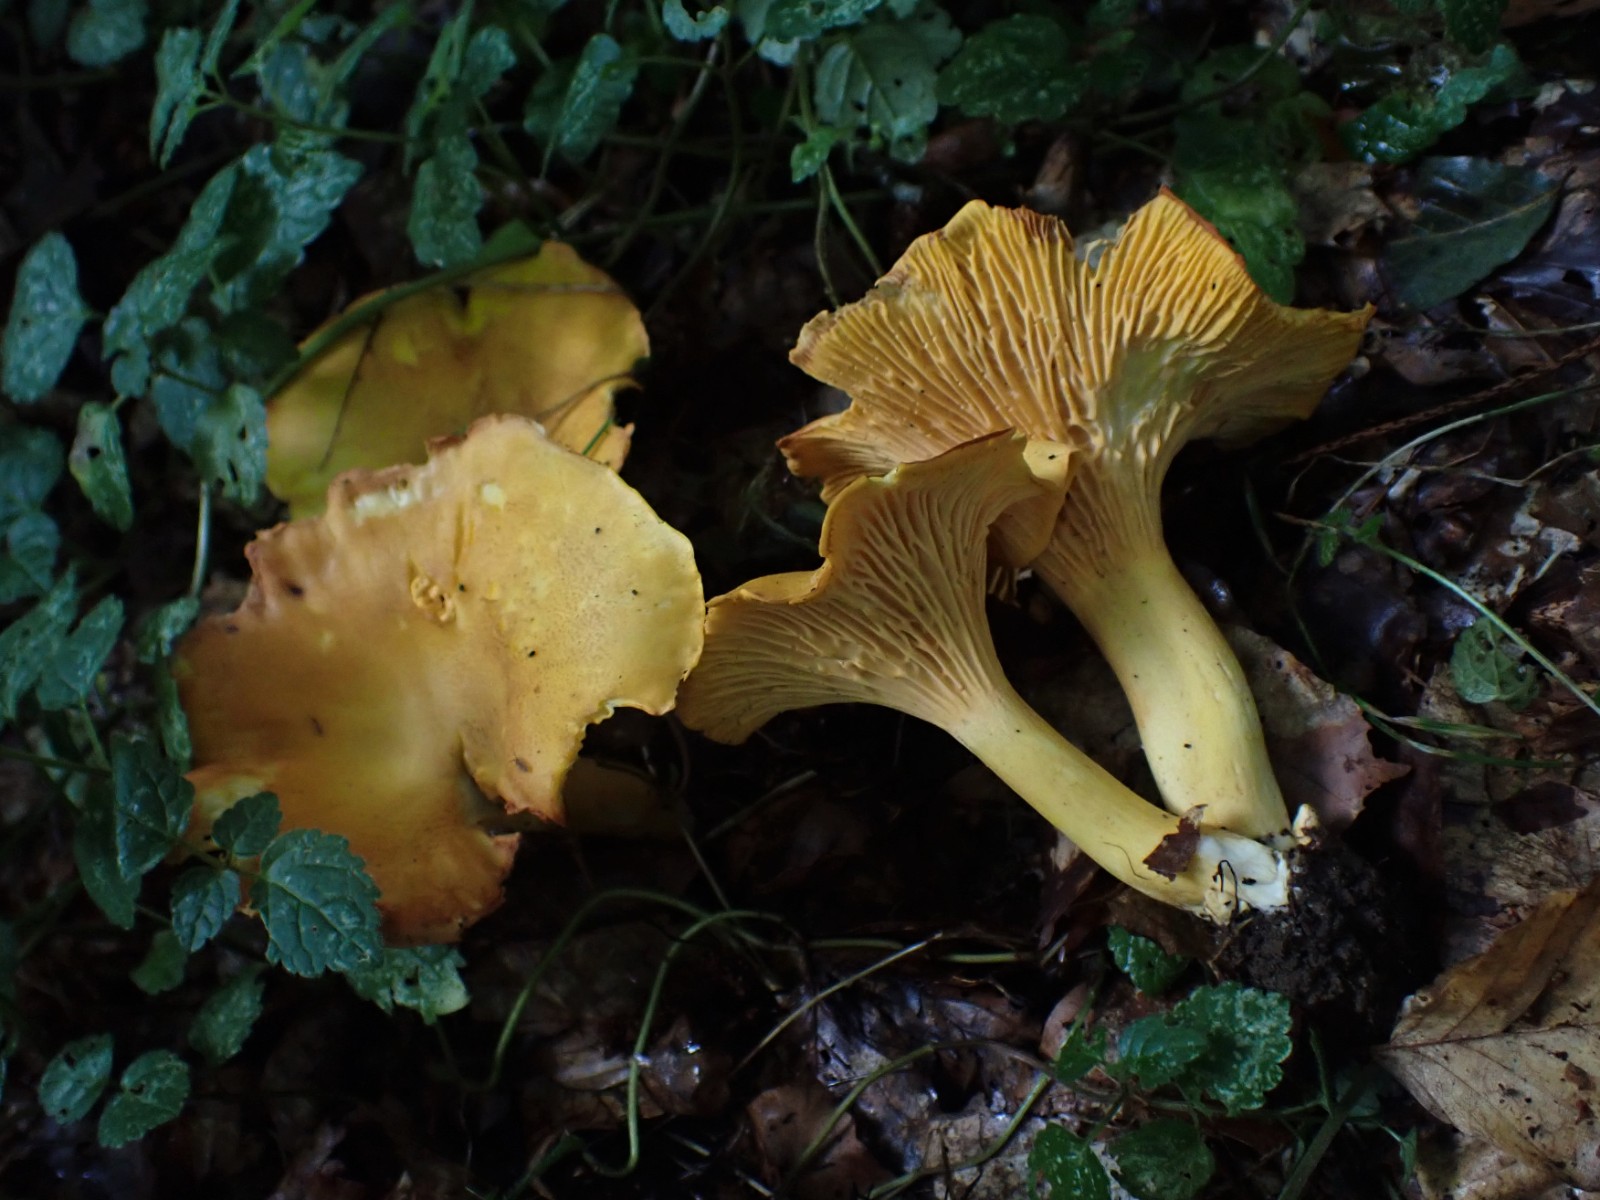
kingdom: Fungi
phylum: Basidiomycota
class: Agaricomycetes
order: Cantharellales
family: Hydnaceae
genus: Cantharellus
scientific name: Cantharellus cibarius
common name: almindelig kantarel
